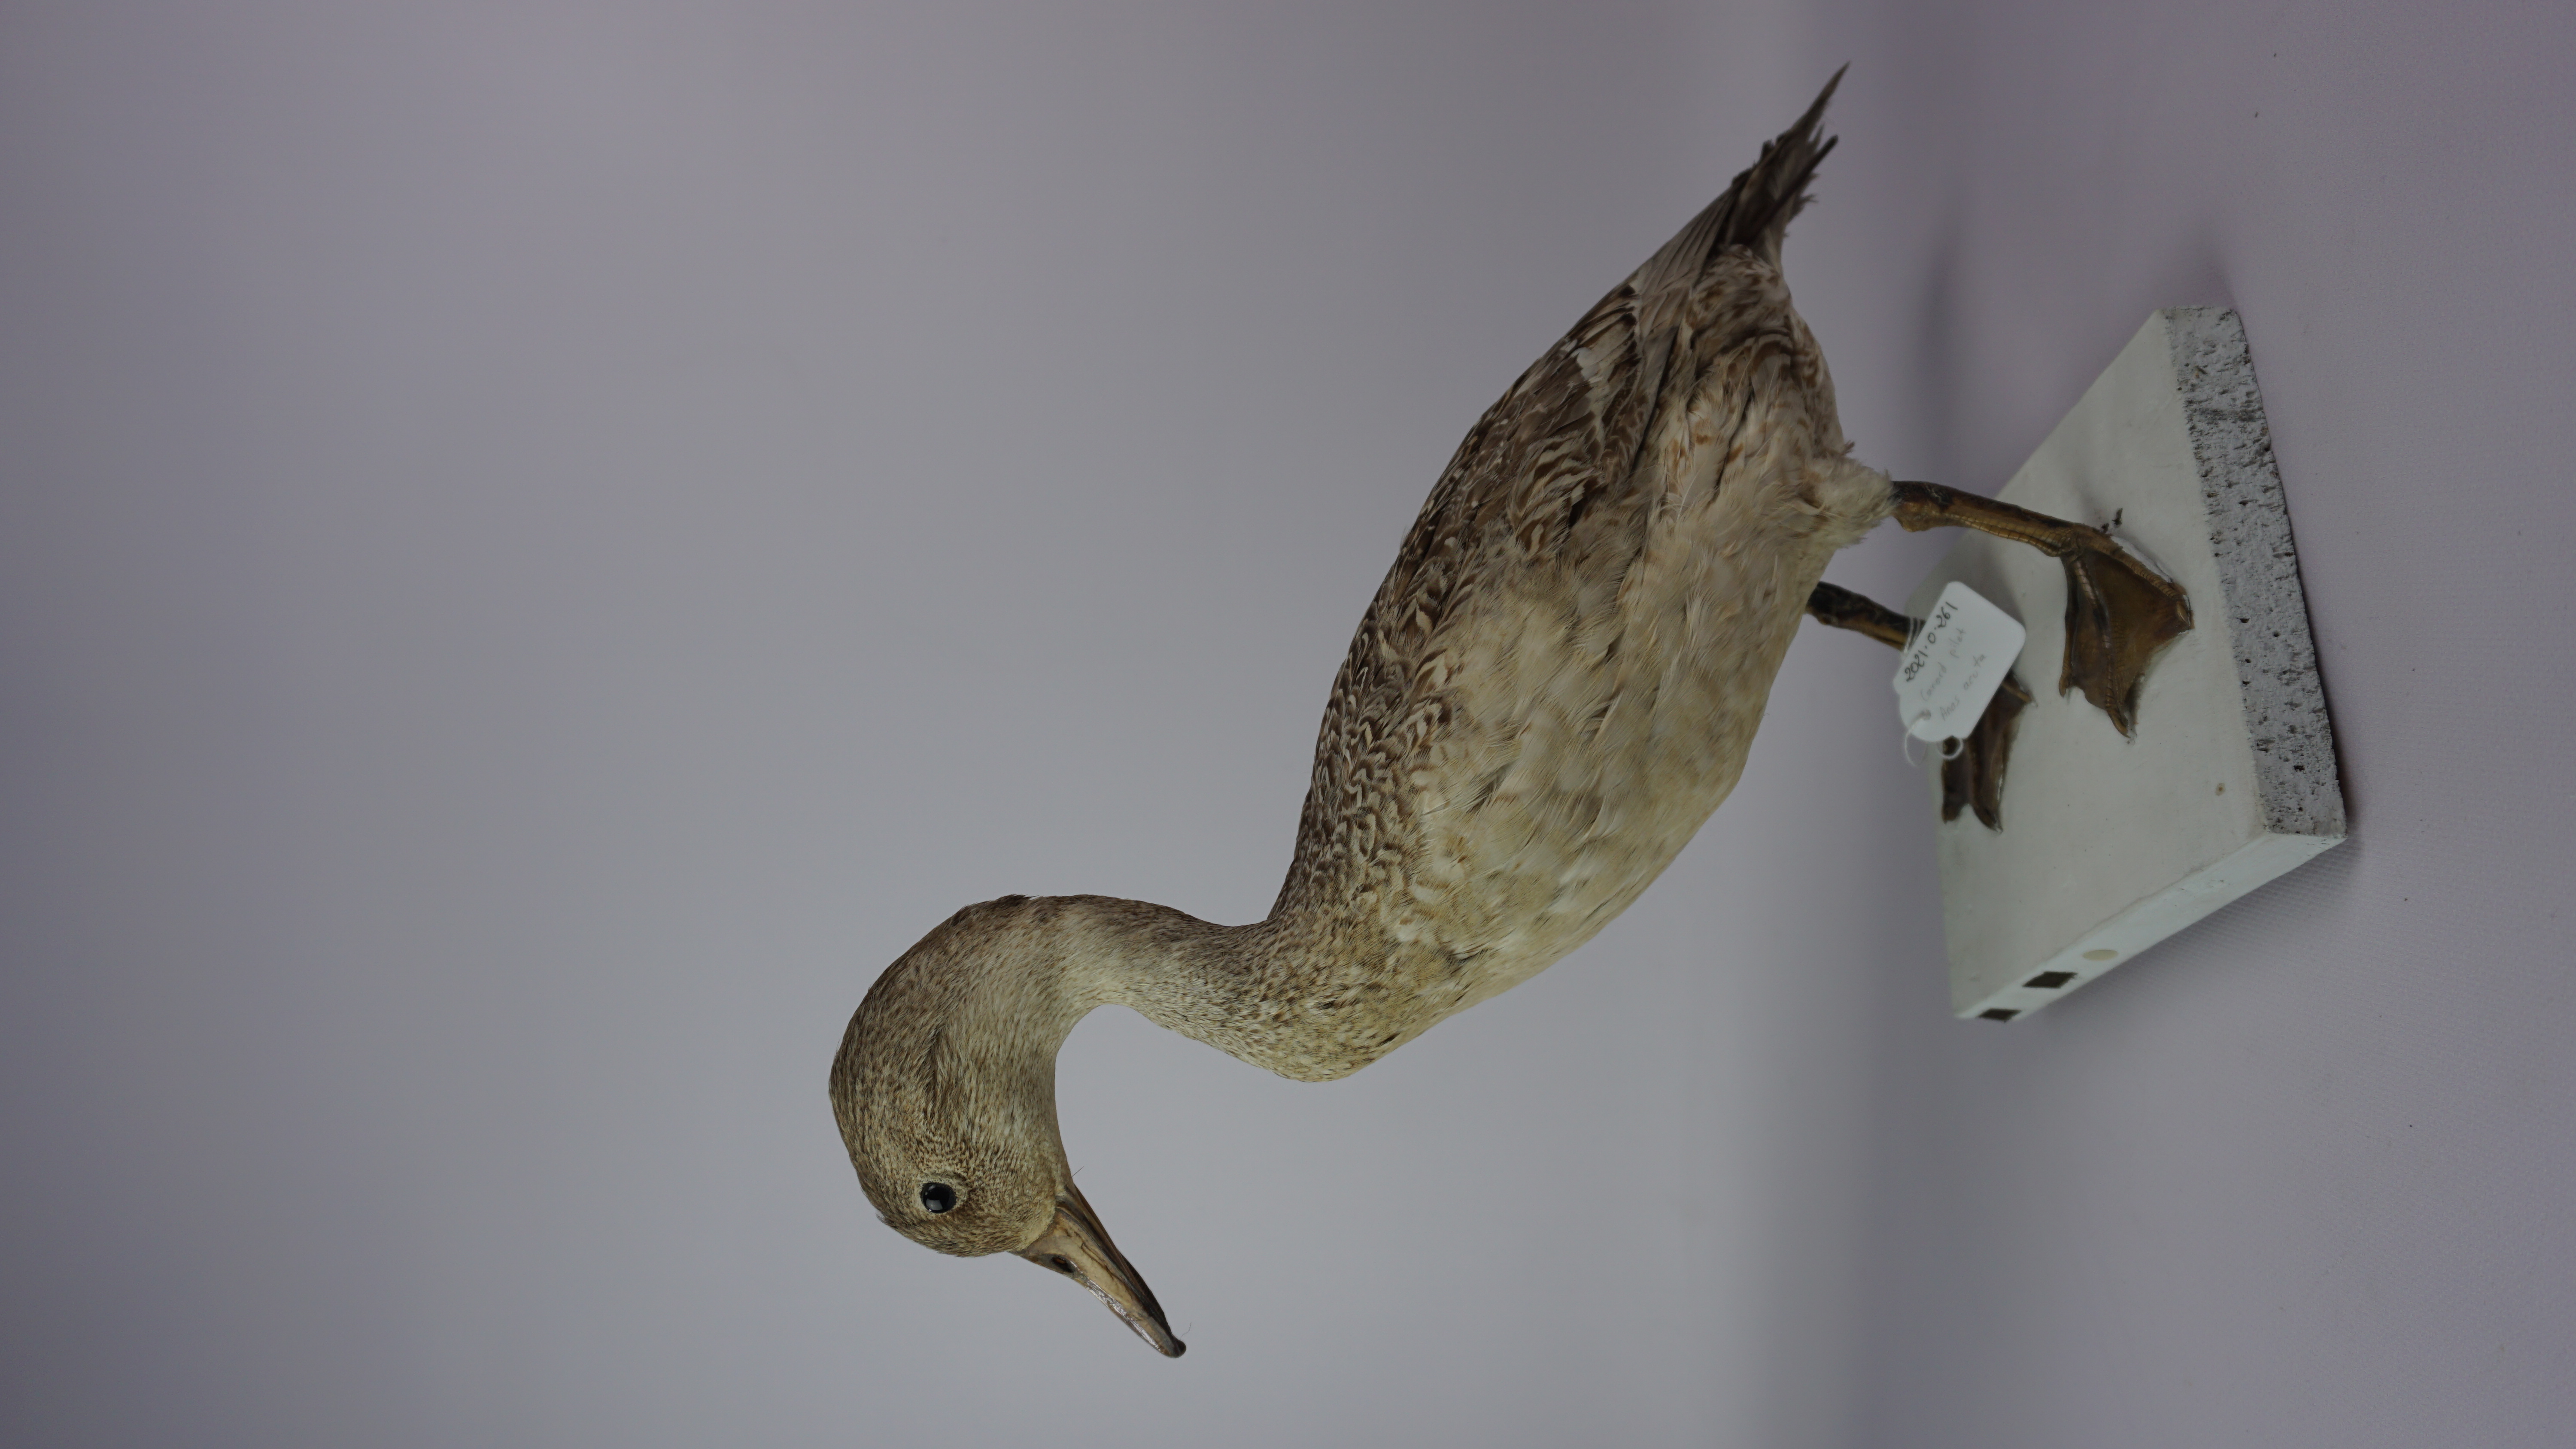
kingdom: Animalia
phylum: Chordata
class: Aves
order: Anseriformes
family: Anatidae
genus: Anas
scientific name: Anas acuta
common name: Northern pintail
